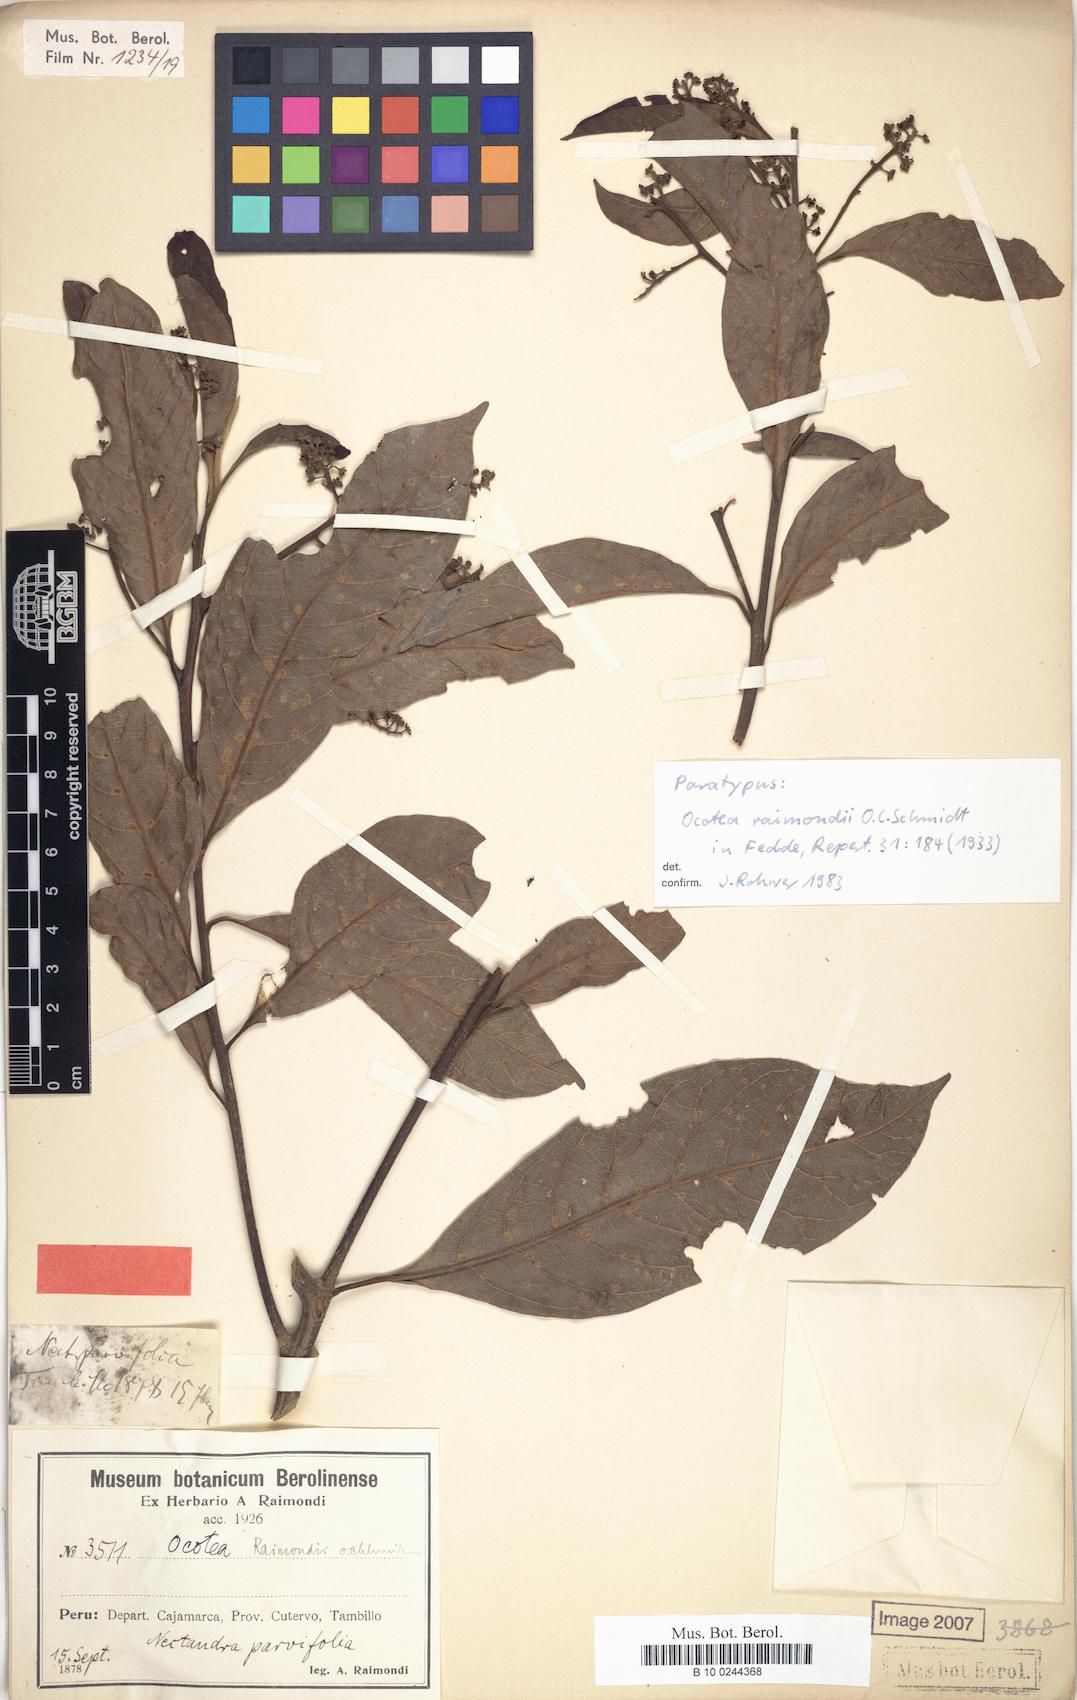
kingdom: Plantae
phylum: Tracheophyta
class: Magnoliopsida
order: Laurales
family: Lauraceae
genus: Ocotea
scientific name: Ocotea cuneifolia
